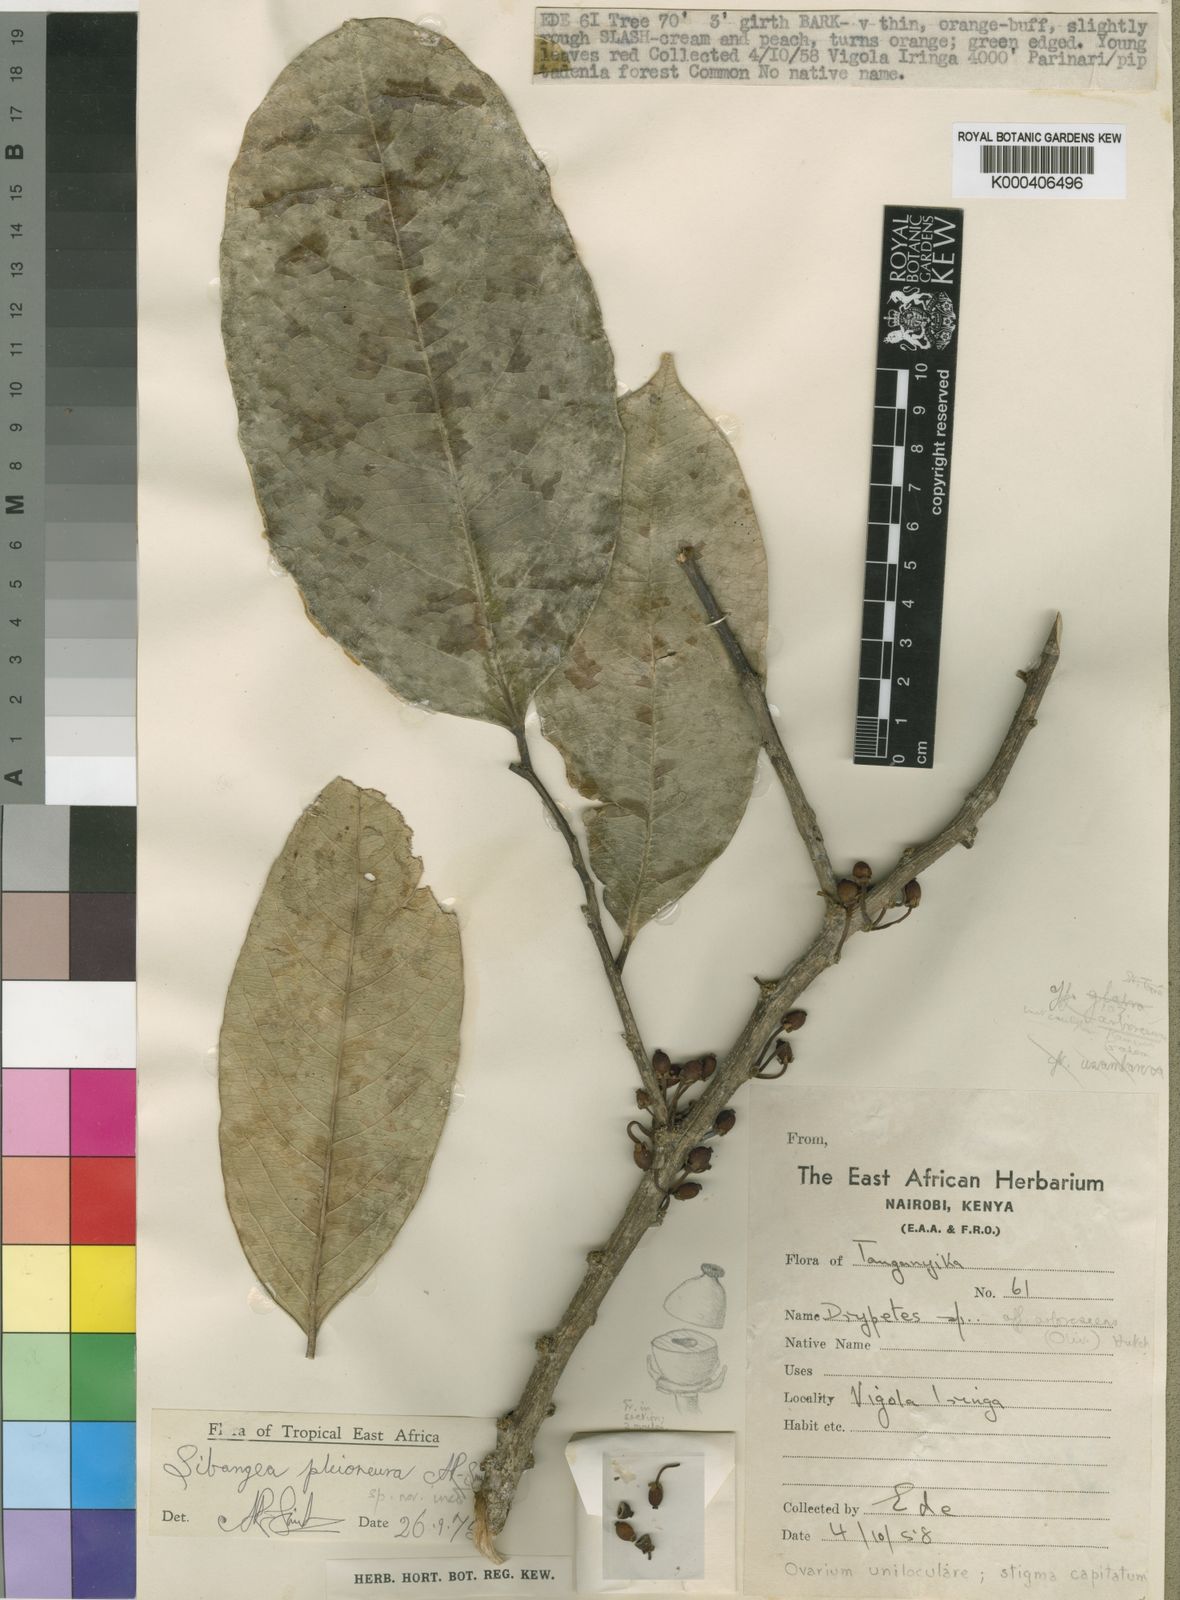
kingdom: Plantae
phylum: Tracheophyta
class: Magnoliopsida
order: Malpighiales
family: Putranjivaceae
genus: Drypetes
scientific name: Drypetes pleioneura
